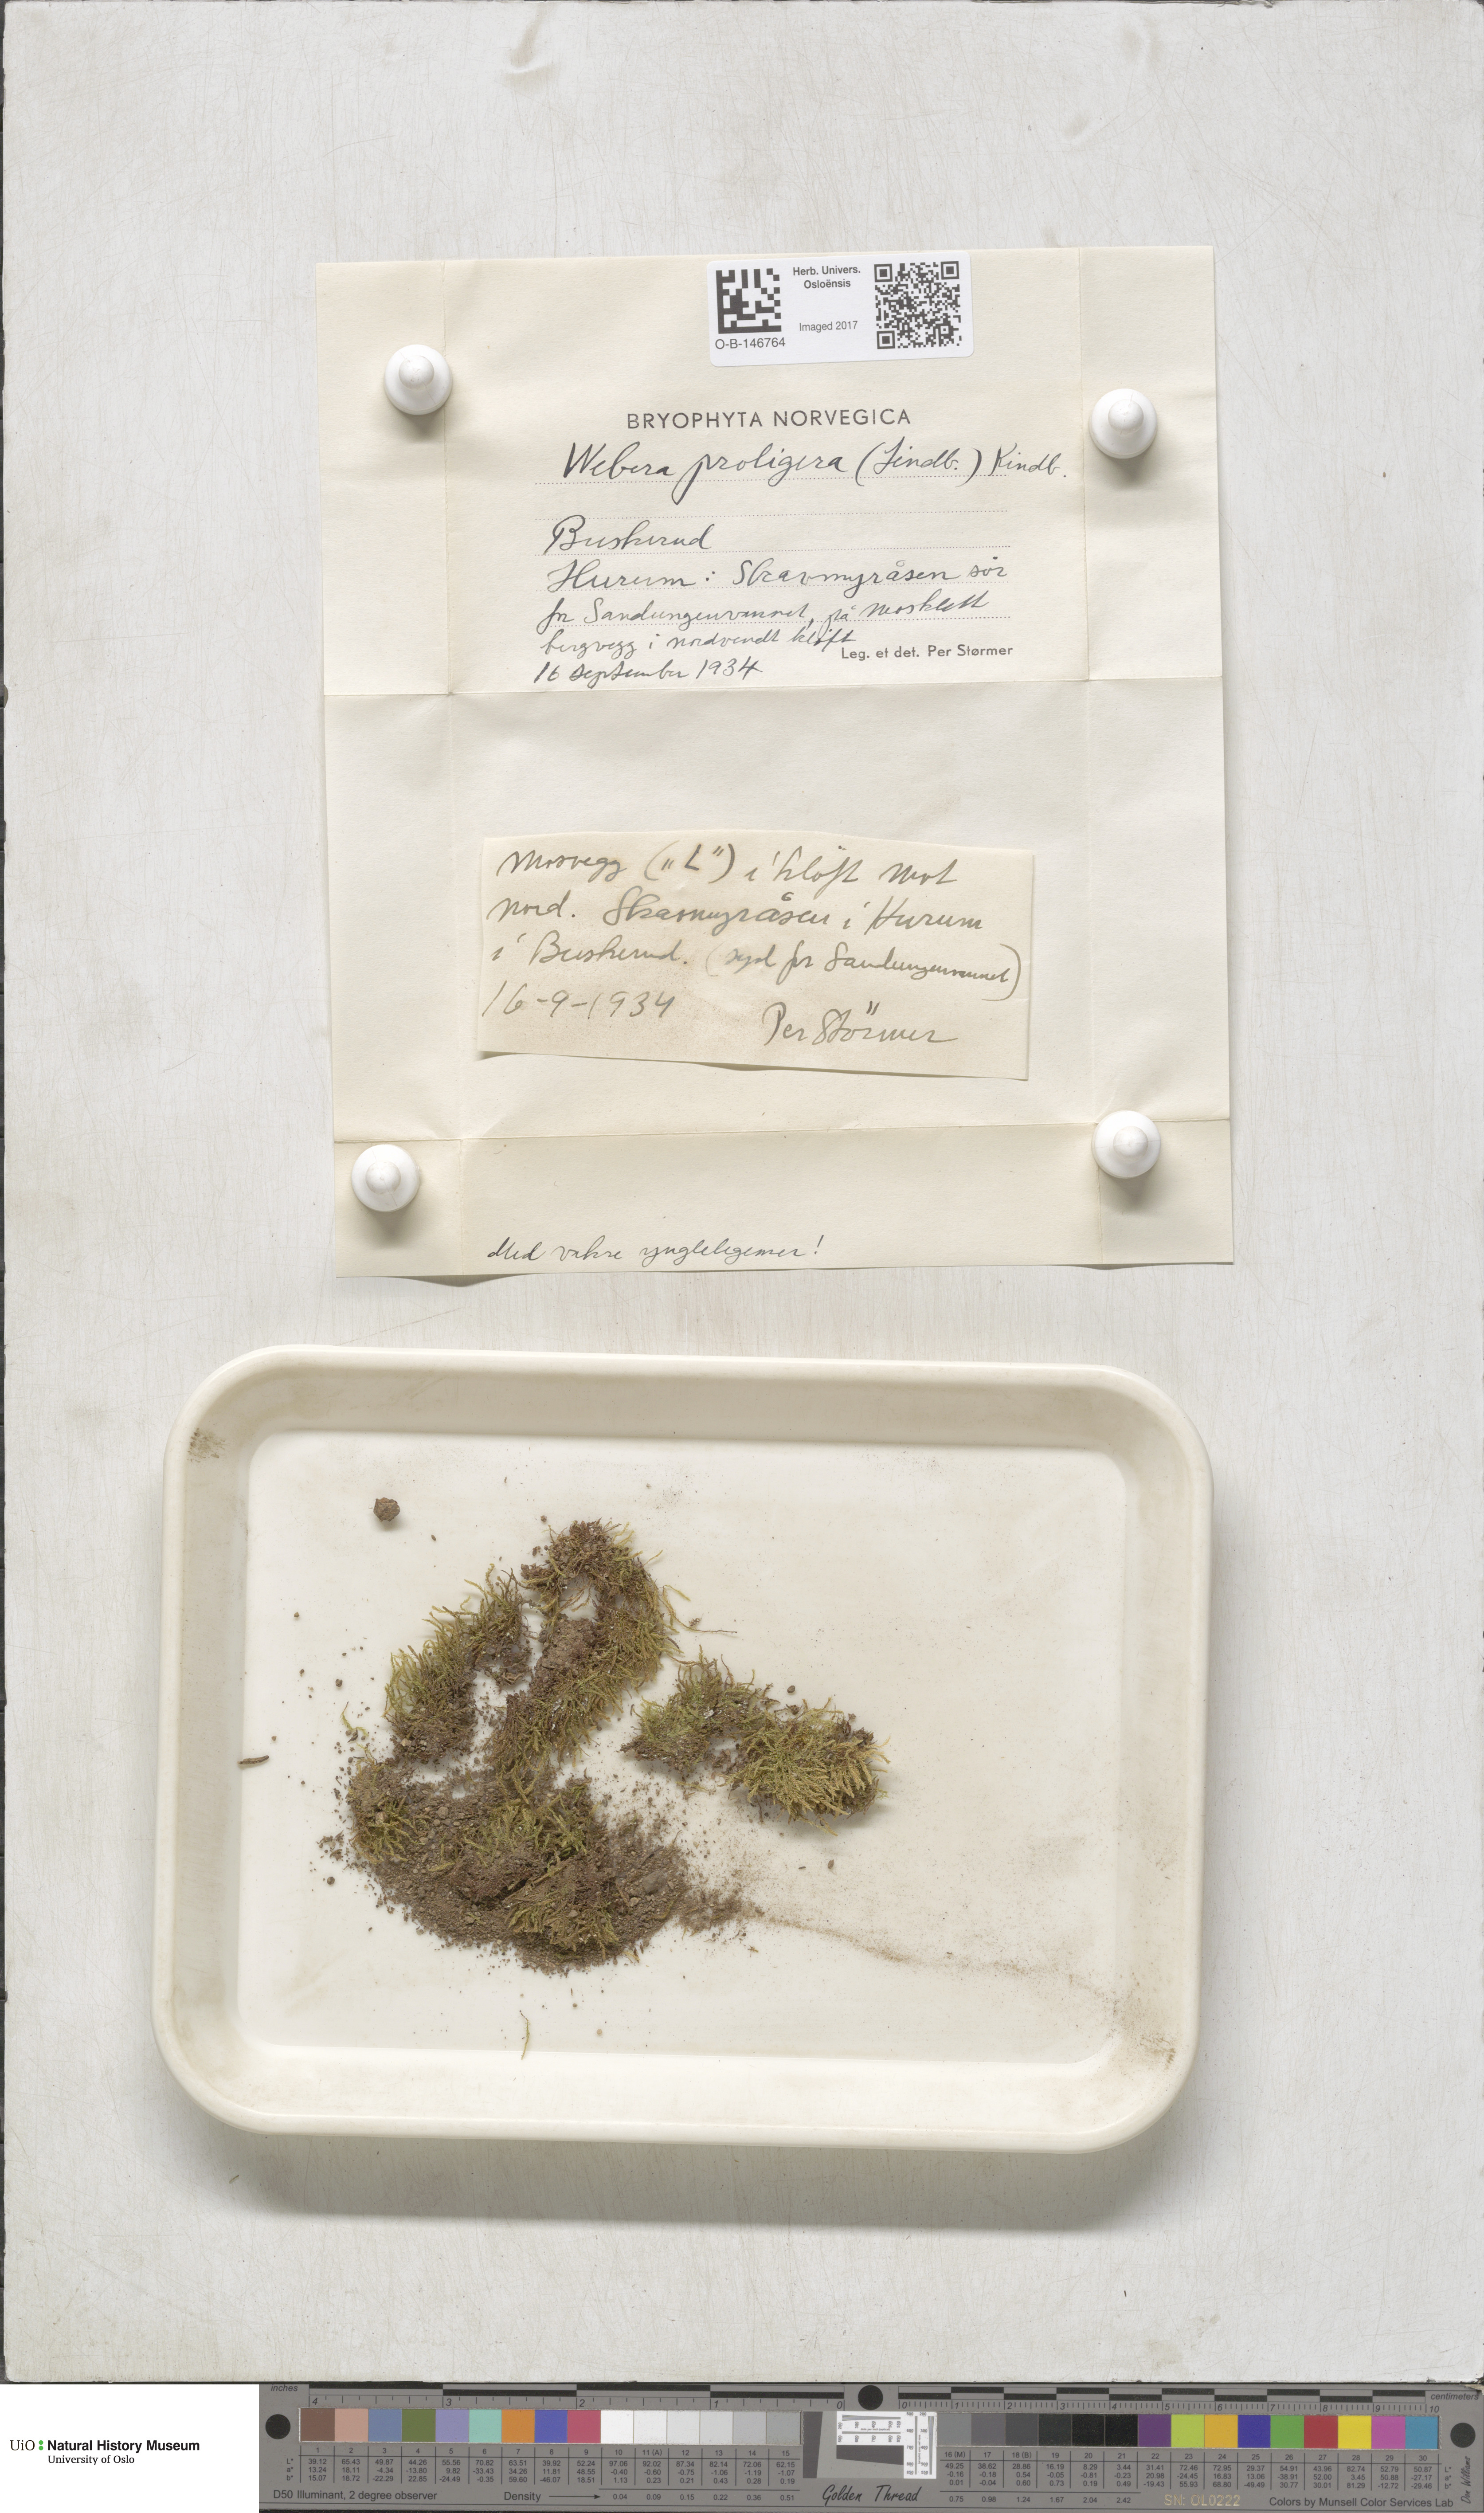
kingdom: Plantae
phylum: Bryophyta
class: Bryopsida
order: Bryales
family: Mniaceae
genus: Pohlia
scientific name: Pohlia proligera
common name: Cottony nodding moss
